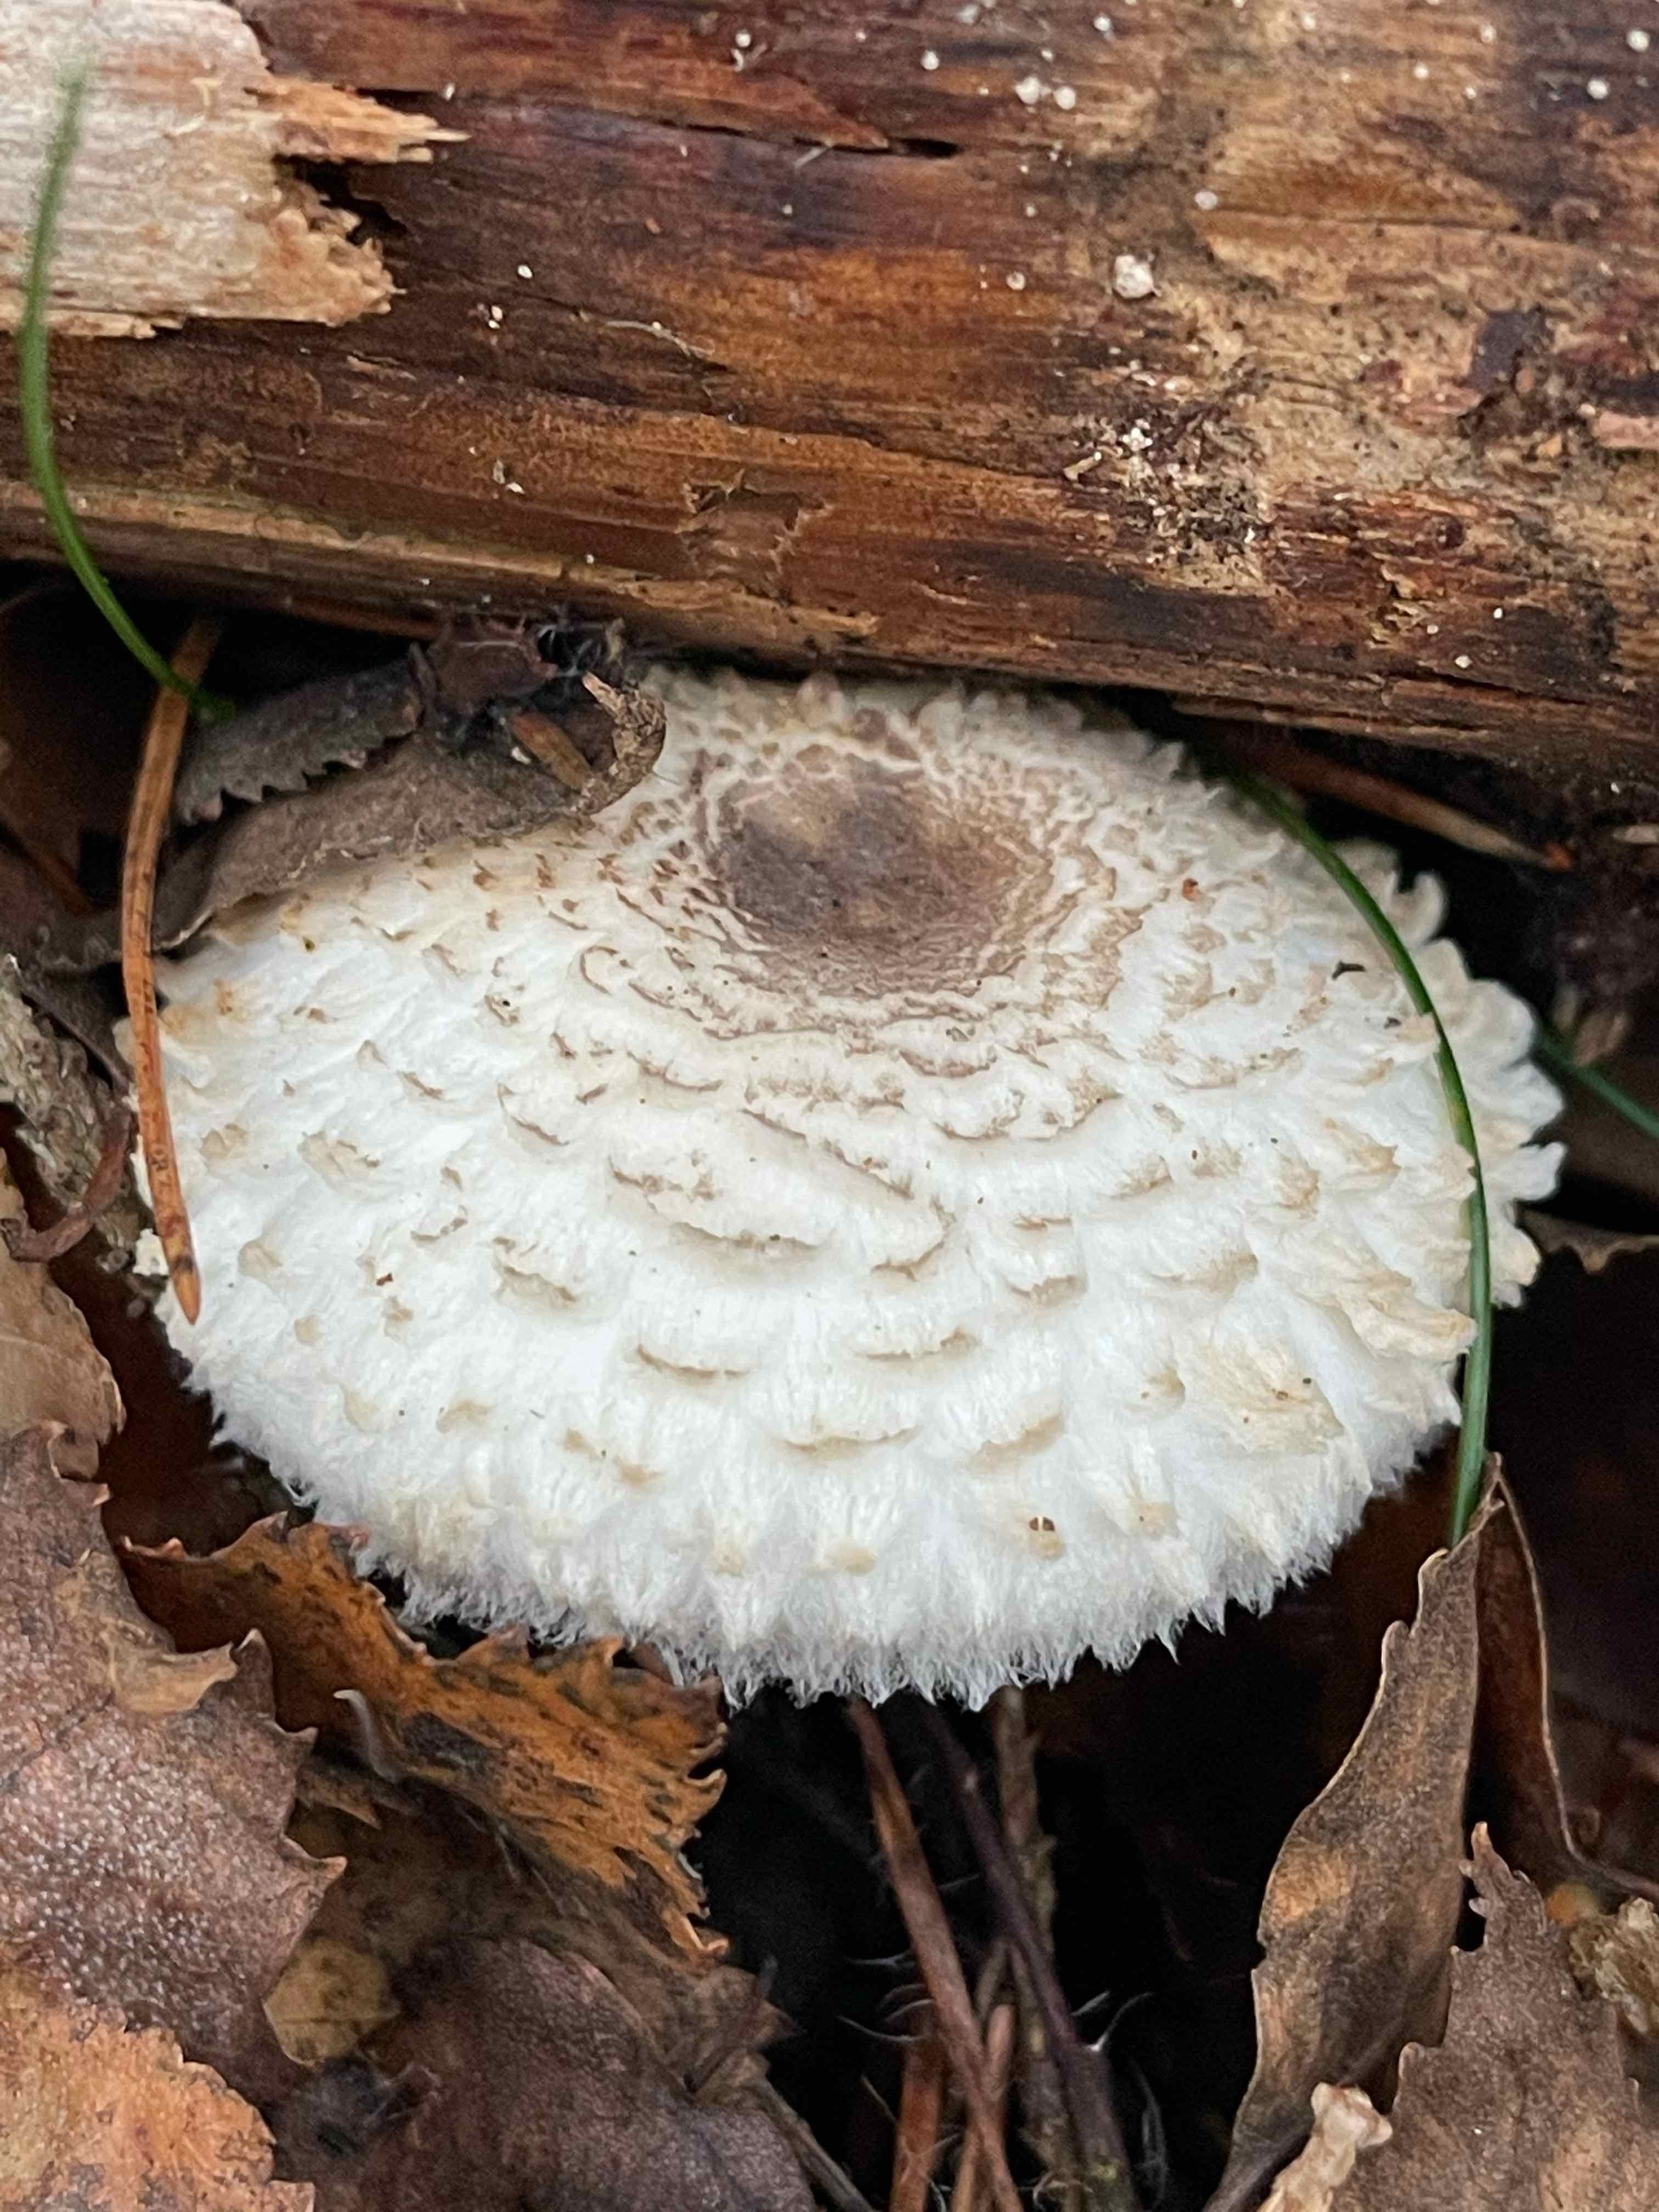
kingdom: Fungi
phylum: Basidiomycota
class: Agaricomycetes
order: Agaricales
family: Agaricaceae
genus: Leucoagaricus
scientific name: Leucoagaricus nympharum
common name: gran-silkehat
